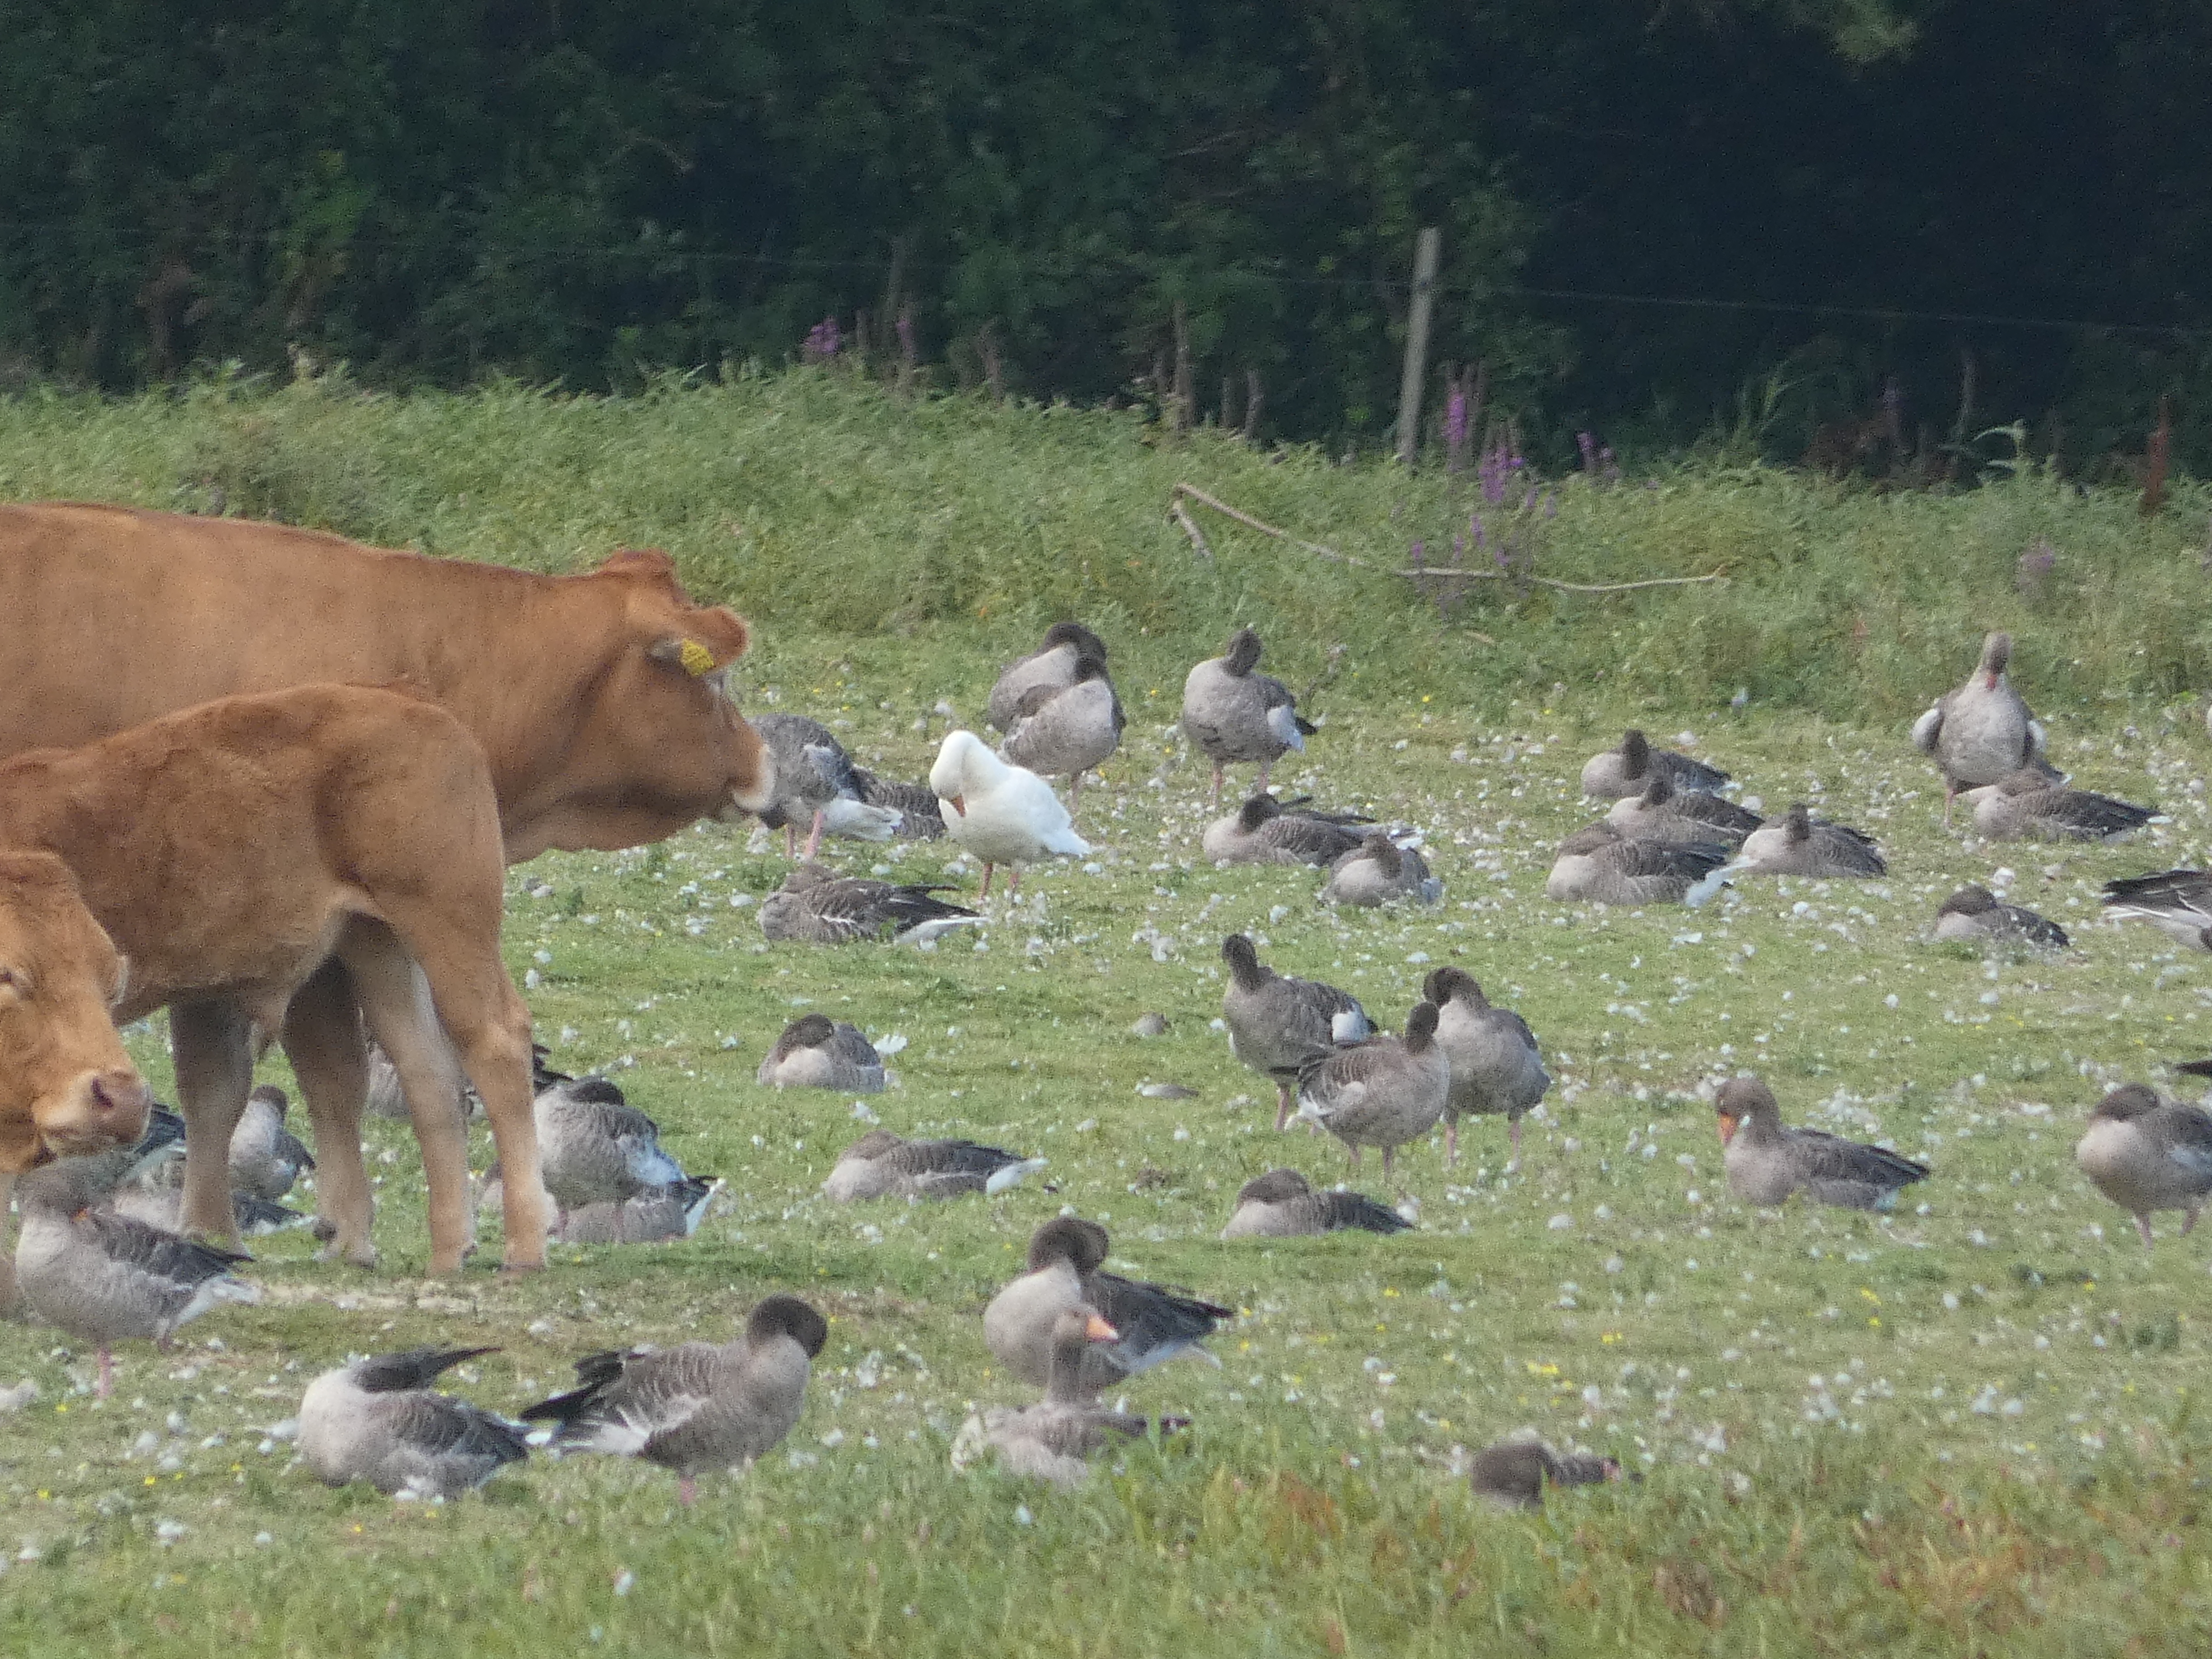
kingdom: Animalia
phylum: Chordata
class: Aves
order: Anseriformes
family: Anatidae
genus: Anser
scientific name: Anser anser
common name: Grågås
